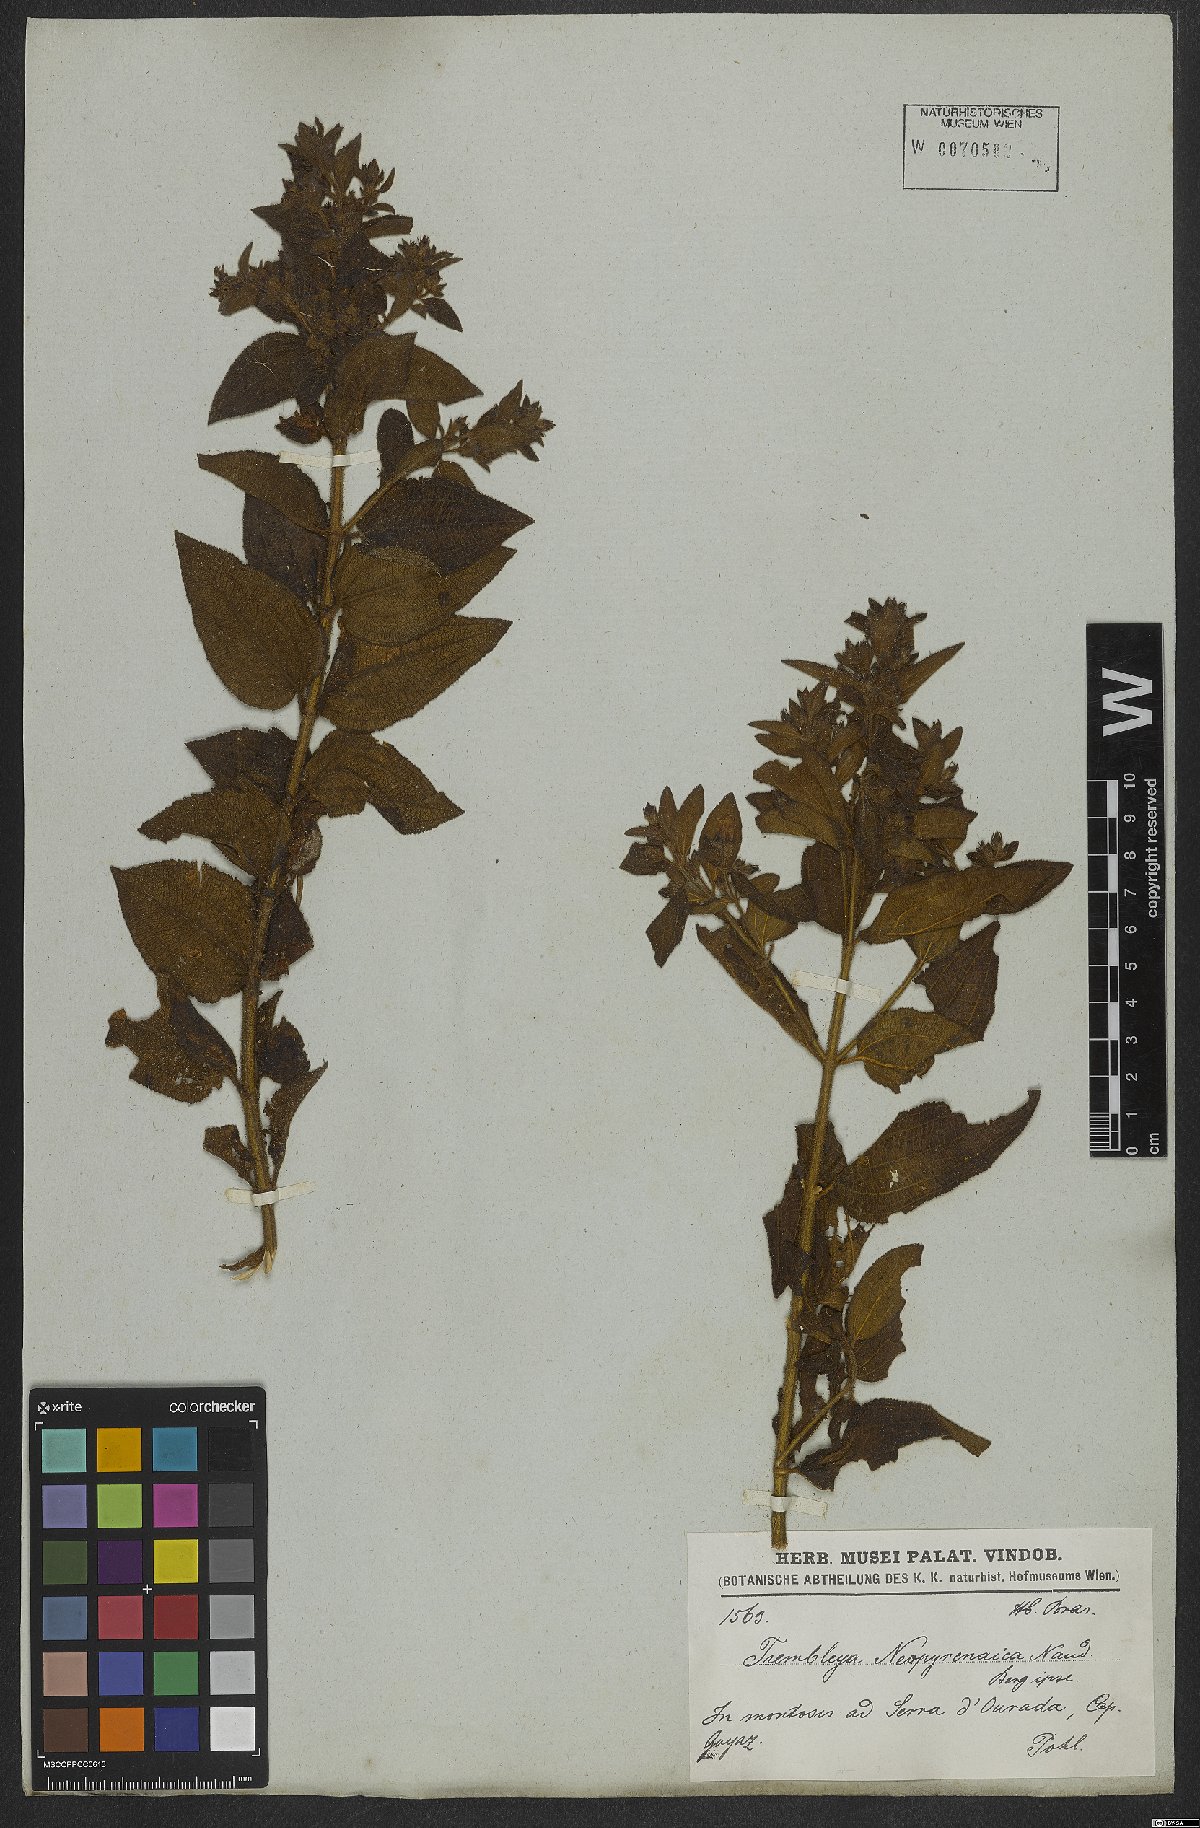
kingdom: Plantae
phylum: Tracheophyta
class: Magnoliopsida
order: Myrtales
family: Melastomataceae
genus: Microlicia
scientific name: Microlicia neopyrenaica
